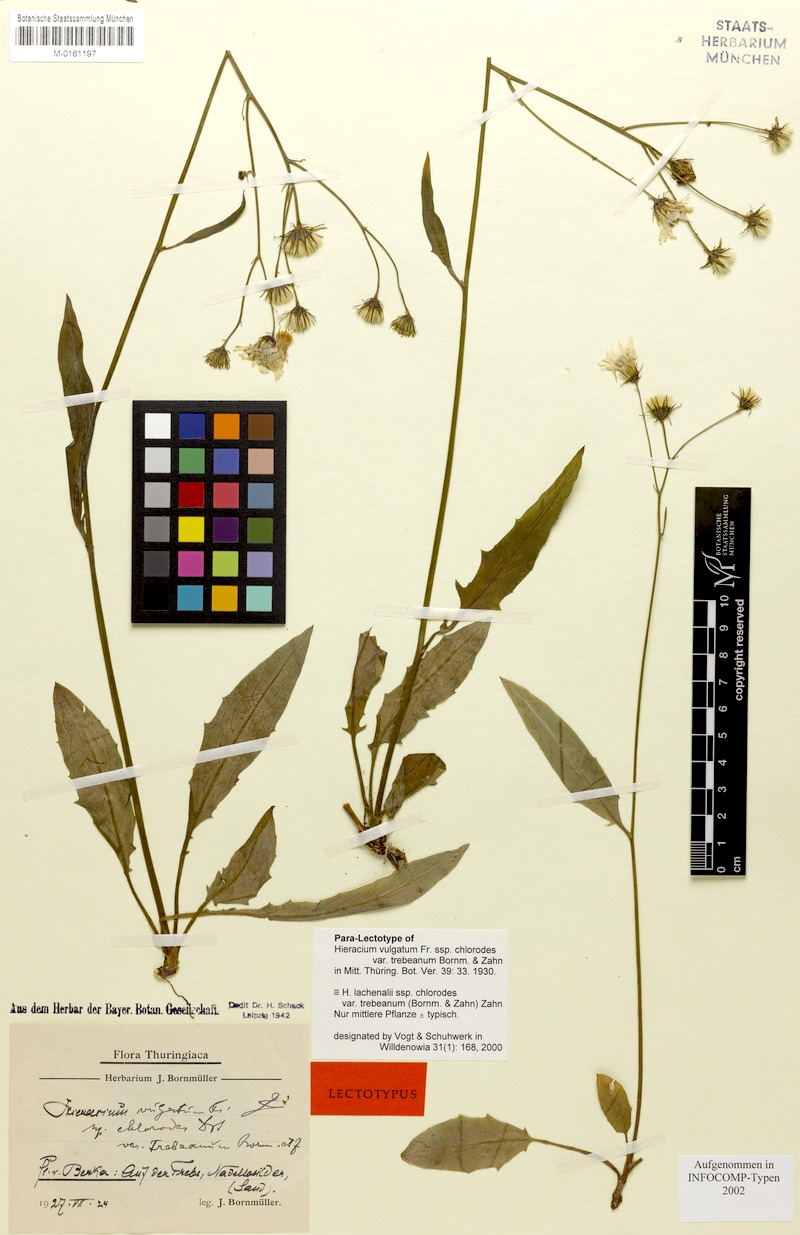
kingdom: Plantae
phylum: Tracheophyta
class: Magnoliopsida
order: Asterales
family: Asteraceae
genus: Hieracium
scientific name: Hieracium lachenalii
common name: Common hawkweed
